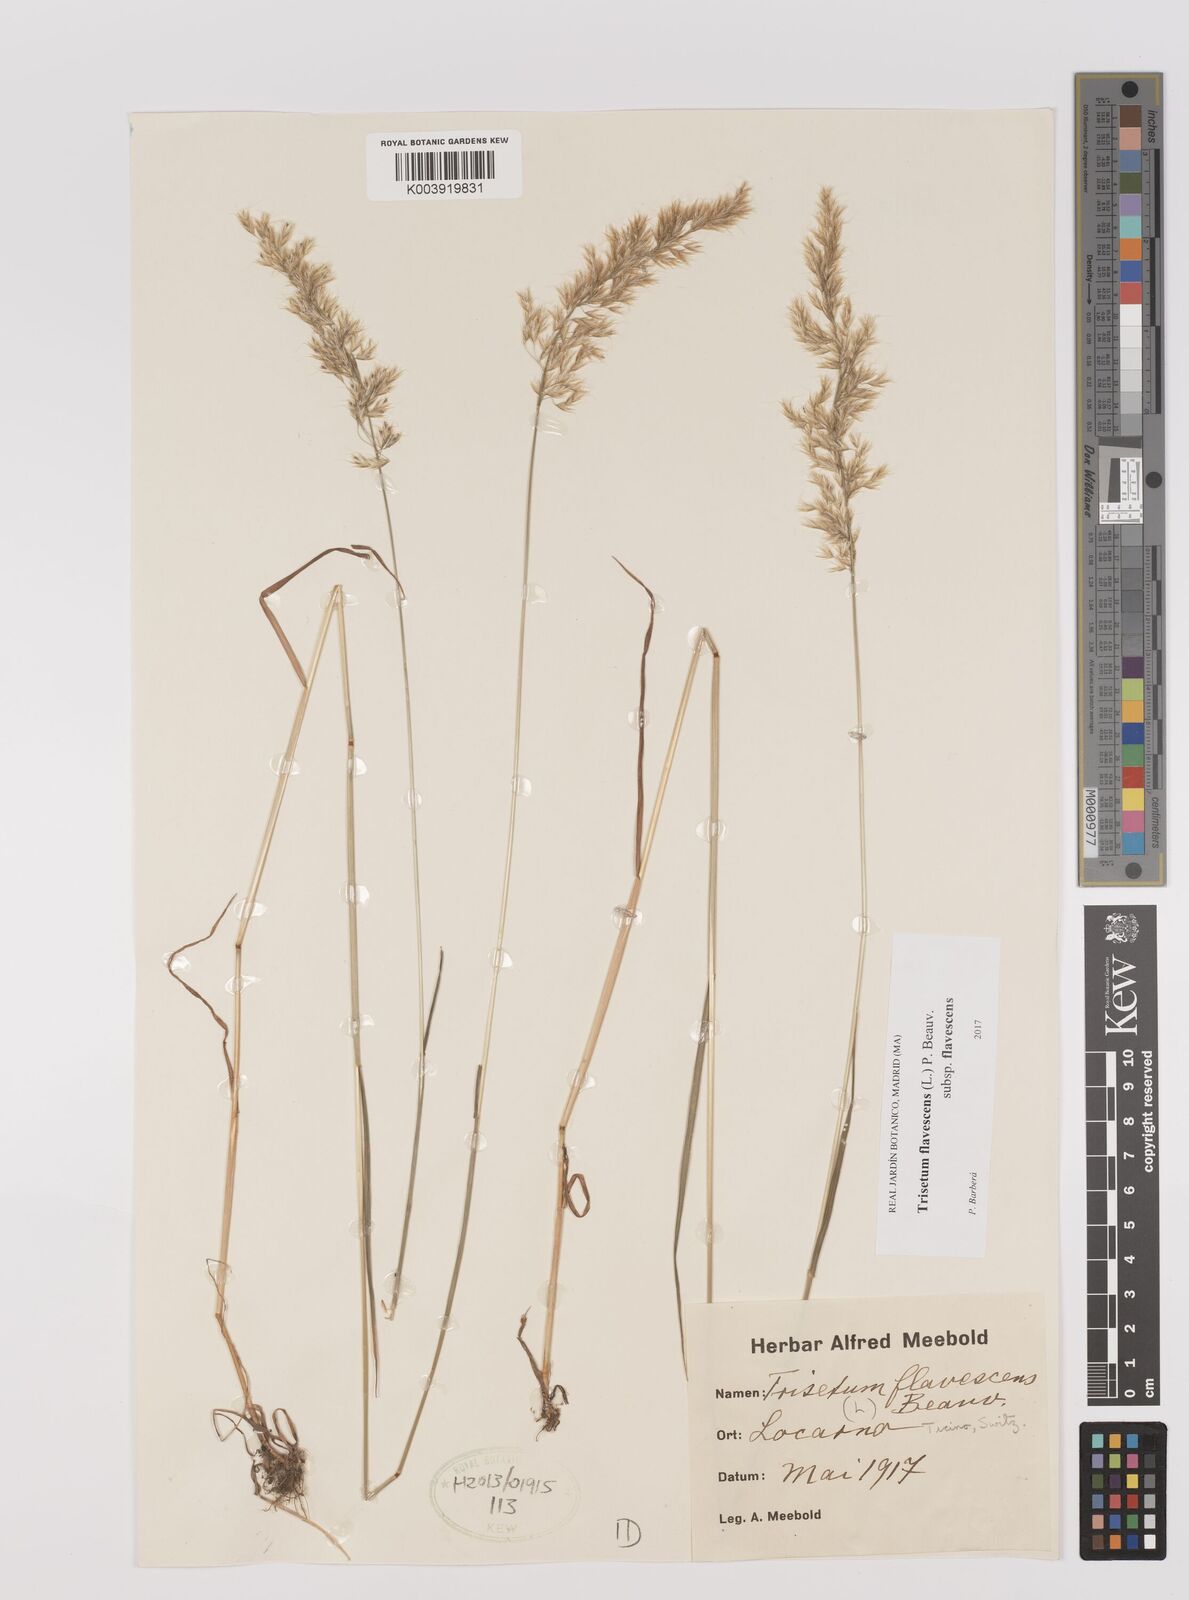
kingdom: Plantae
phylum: Tracheophyta
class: Liliopsida
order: Poales
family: Poaceae
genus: Trisetum
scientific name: Trisetum flavescens
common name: Yellow oat-grass
